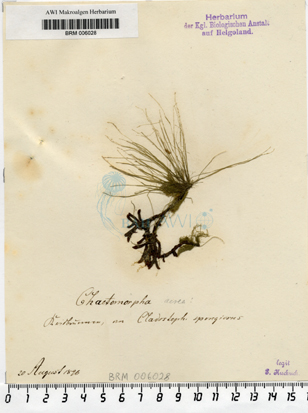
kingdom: Plantae
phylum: Chlorophyta
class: Ulvophyceae
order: Cladophorales
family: Cladophoraceae
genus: Chaetomorpha
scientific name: Chaetomorpha aerea
